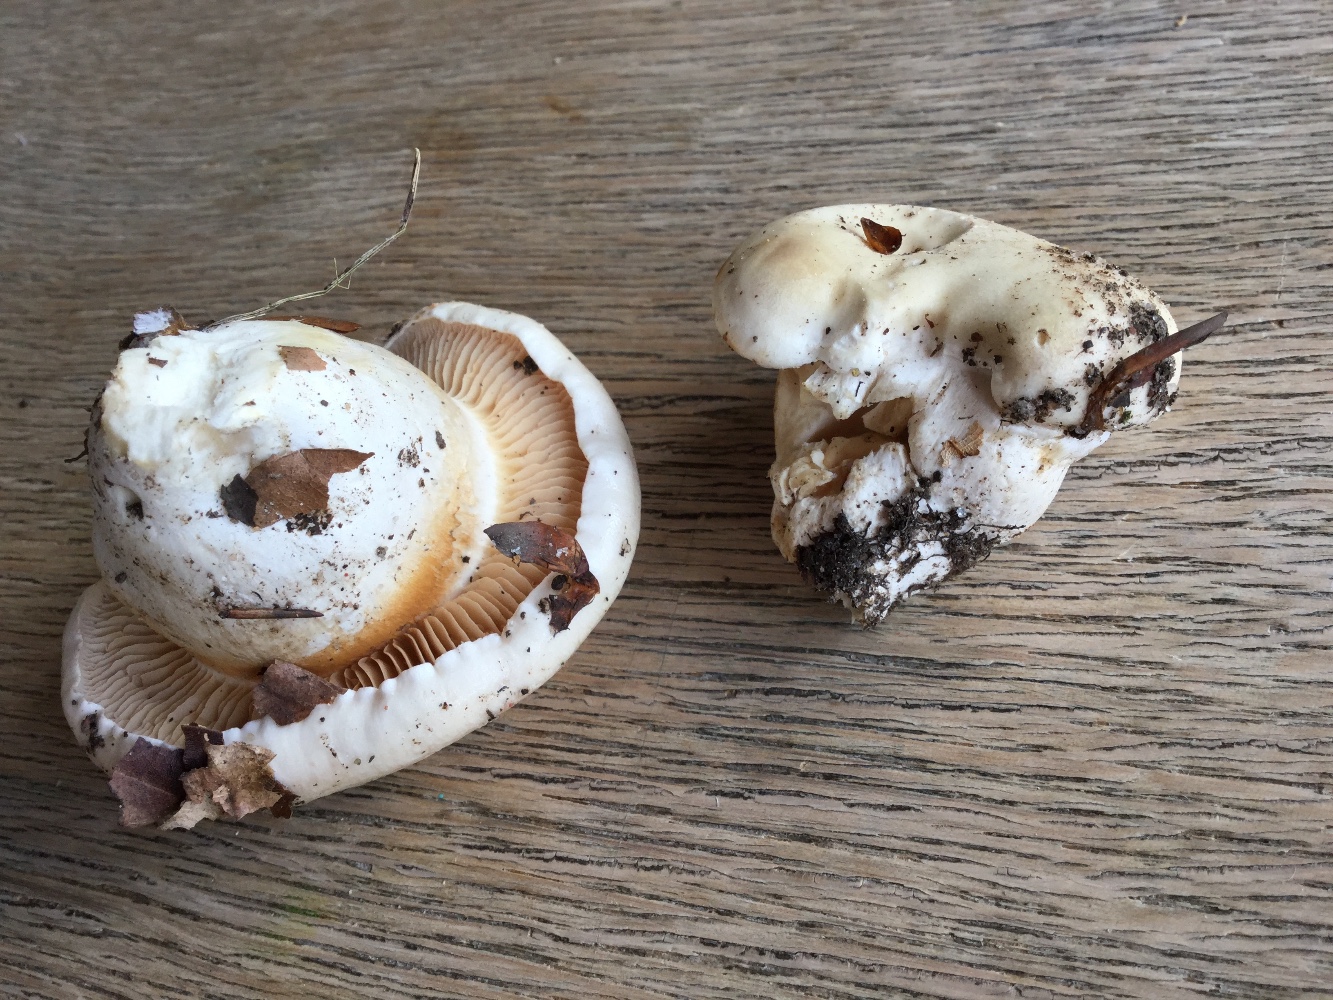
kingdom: Fungi
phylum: Basidiomycota
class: Agaricomycetes
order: Agaricales
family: Cortinariaceae
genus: Thaxterogaster
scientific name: Thaxterogaster barbatus
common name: elfenbens-slørhat
